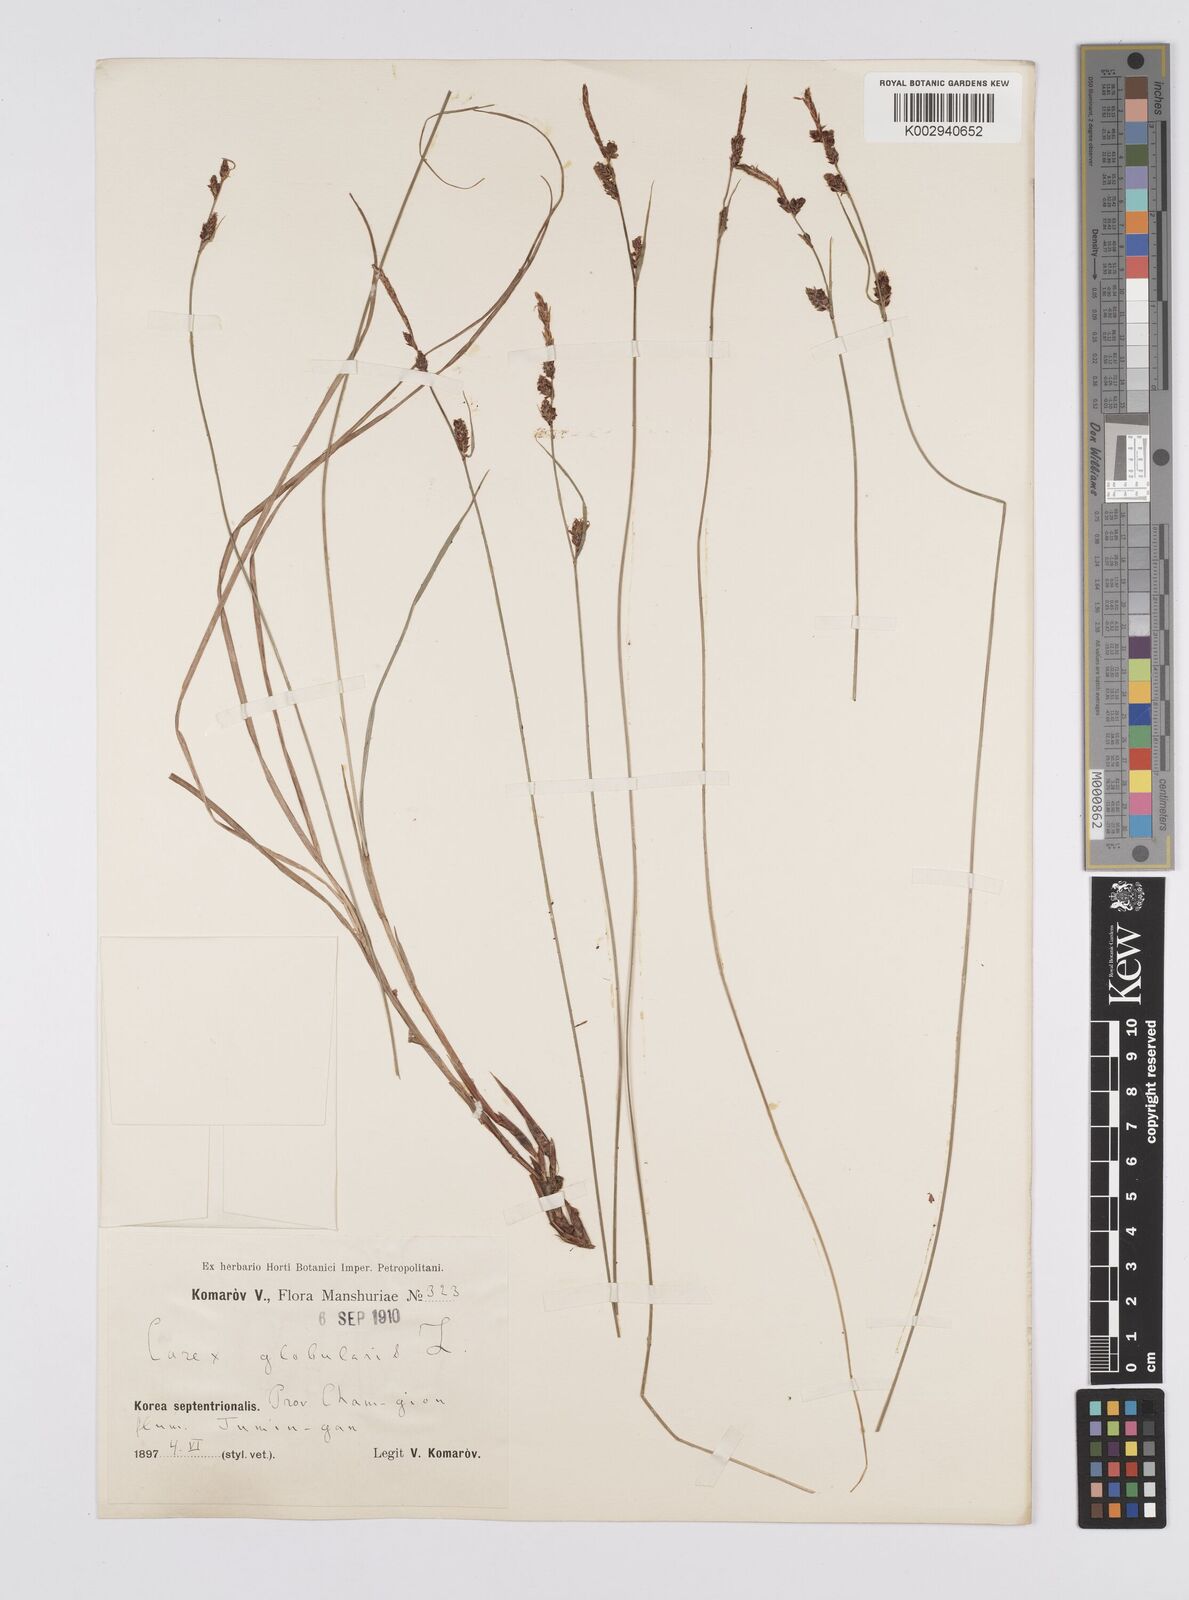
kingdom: Plantae
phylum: Tracheophyta
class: Liliopsida
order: Poales
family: Cyperaceae
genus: Carex
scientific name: Carex globularis
